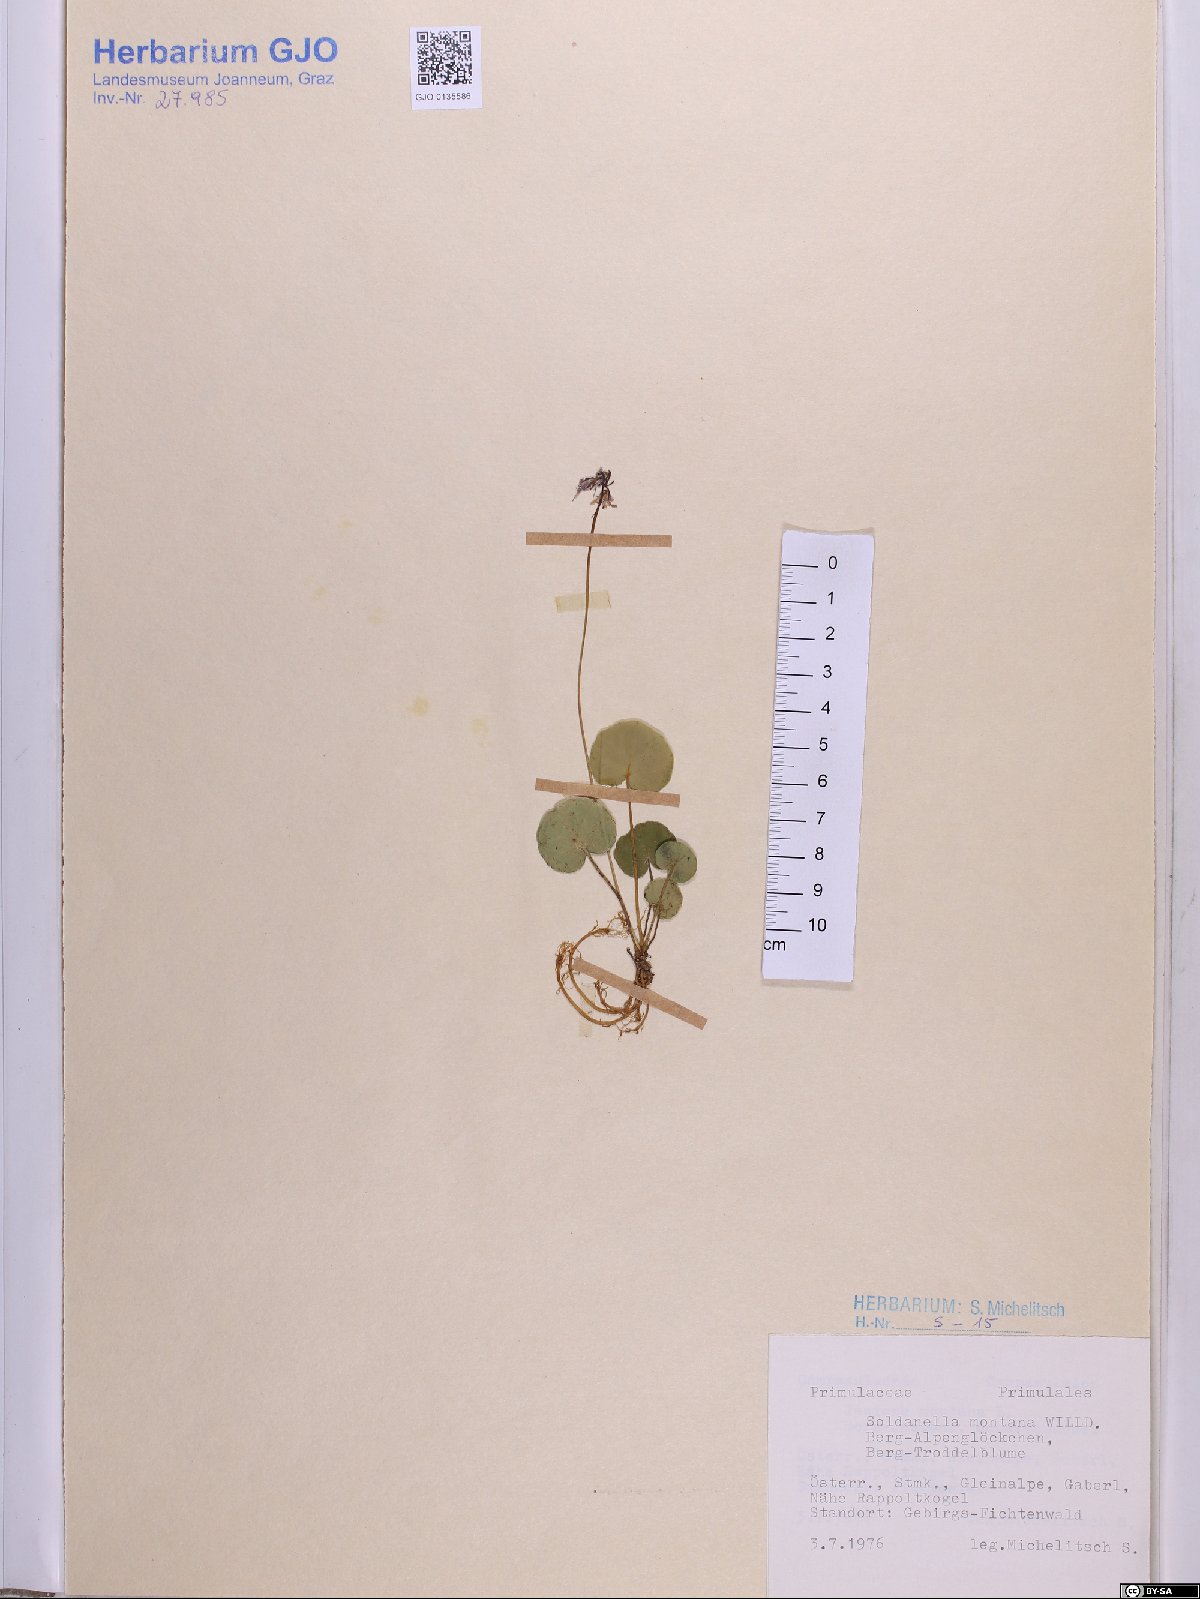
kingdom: Plantae
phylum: Tracheophyta
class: Magnoliopsida
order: Ericales
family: Primulaceae
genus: Soldanella
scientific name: Soldanella montana
